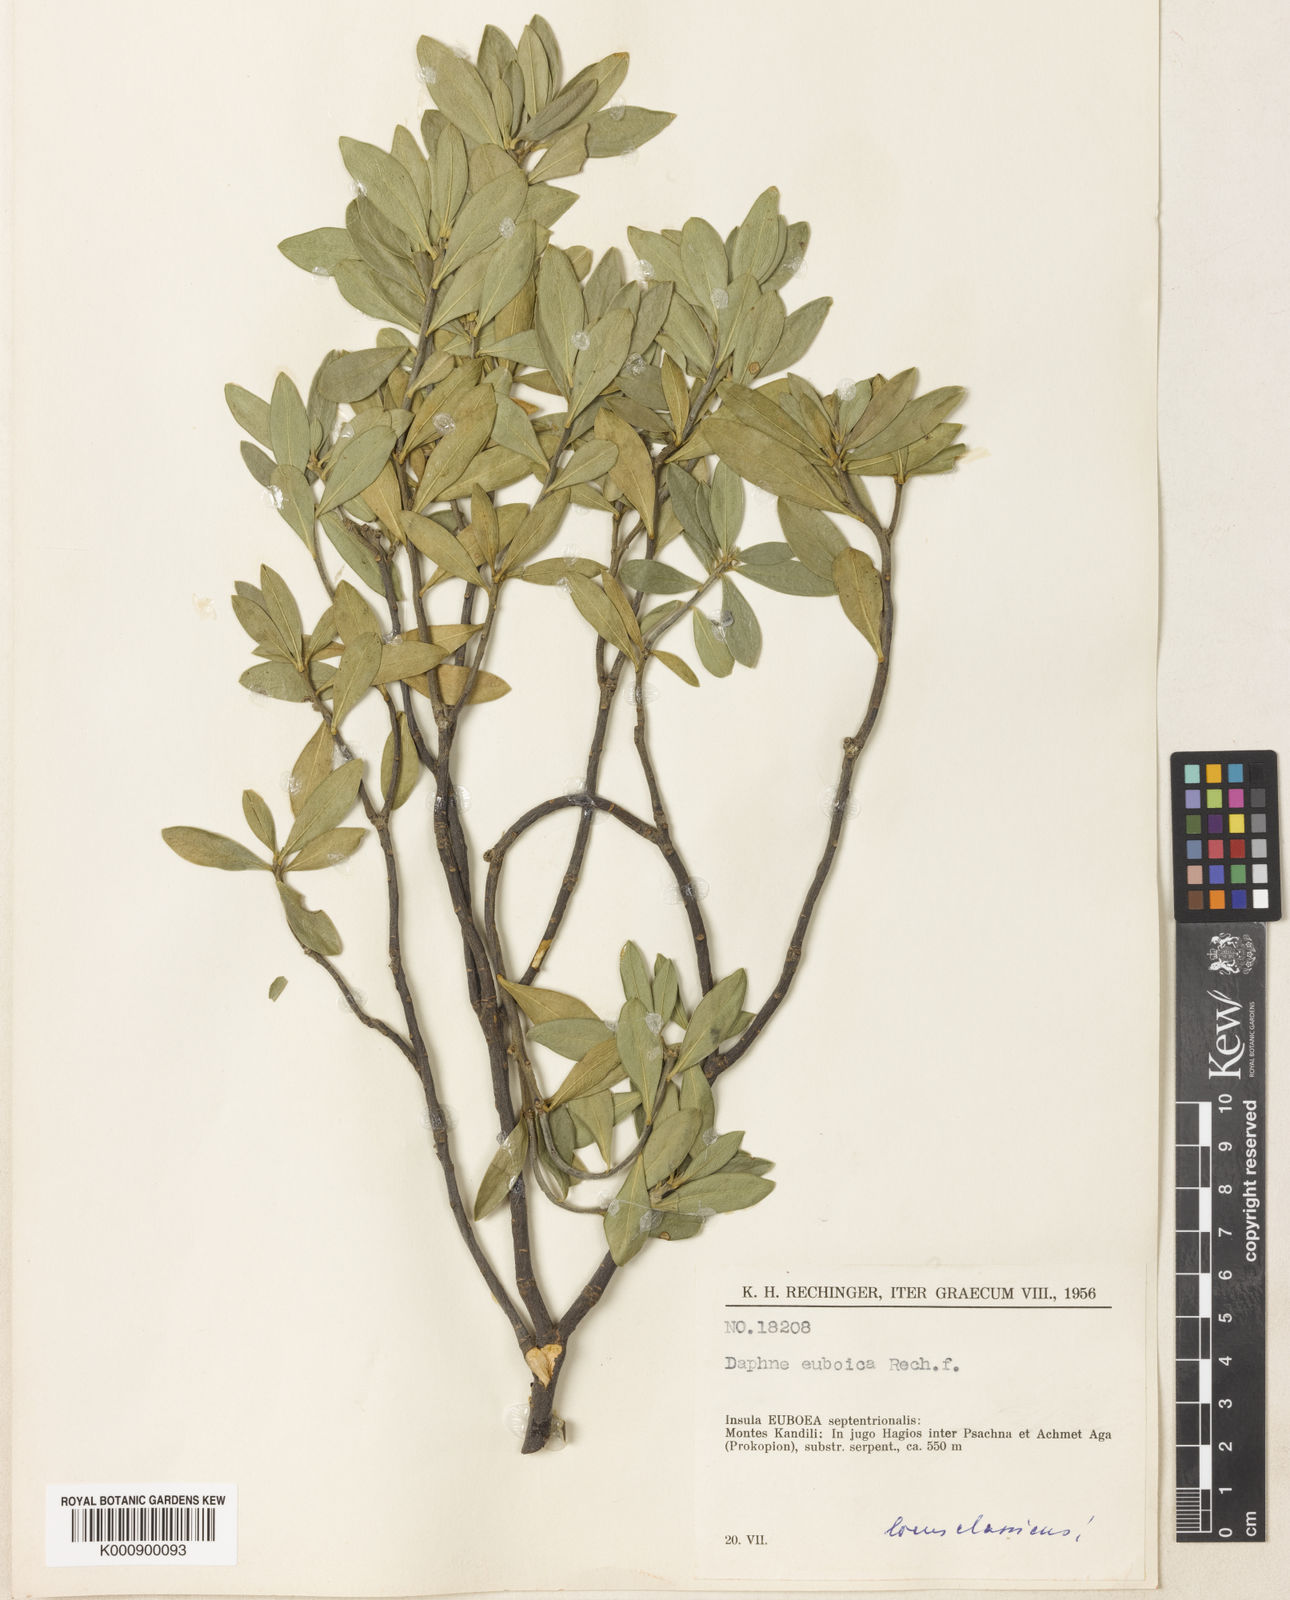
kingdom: Plantae
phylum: Tracheophyta
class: Magnoliopsida
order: Malvales
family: Thymelaeaceae
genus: Daphne
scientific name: Daphne oleoides
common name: Spurge-olive
